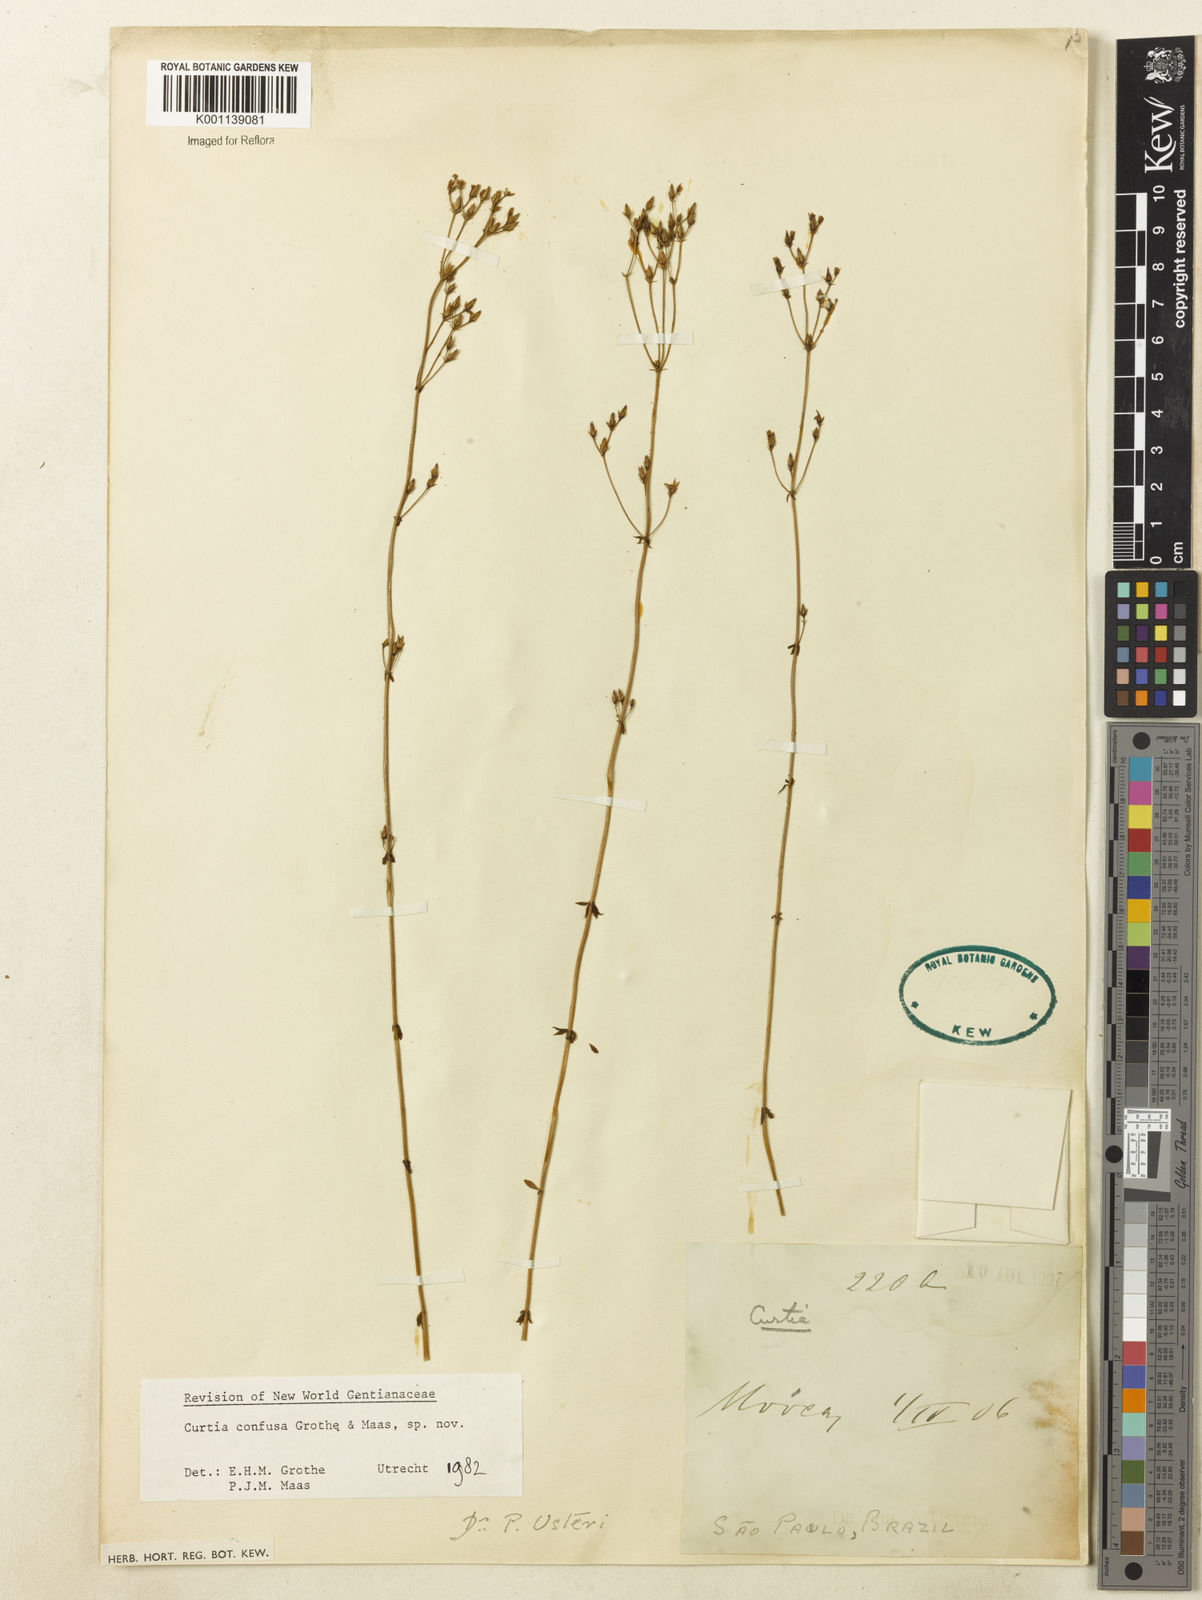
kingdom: Plantae
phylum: Tracheophyta
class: Magnoliopsida
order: Gentianales
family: Gentianaceae
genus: Curtia
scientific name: Curtia conferta
